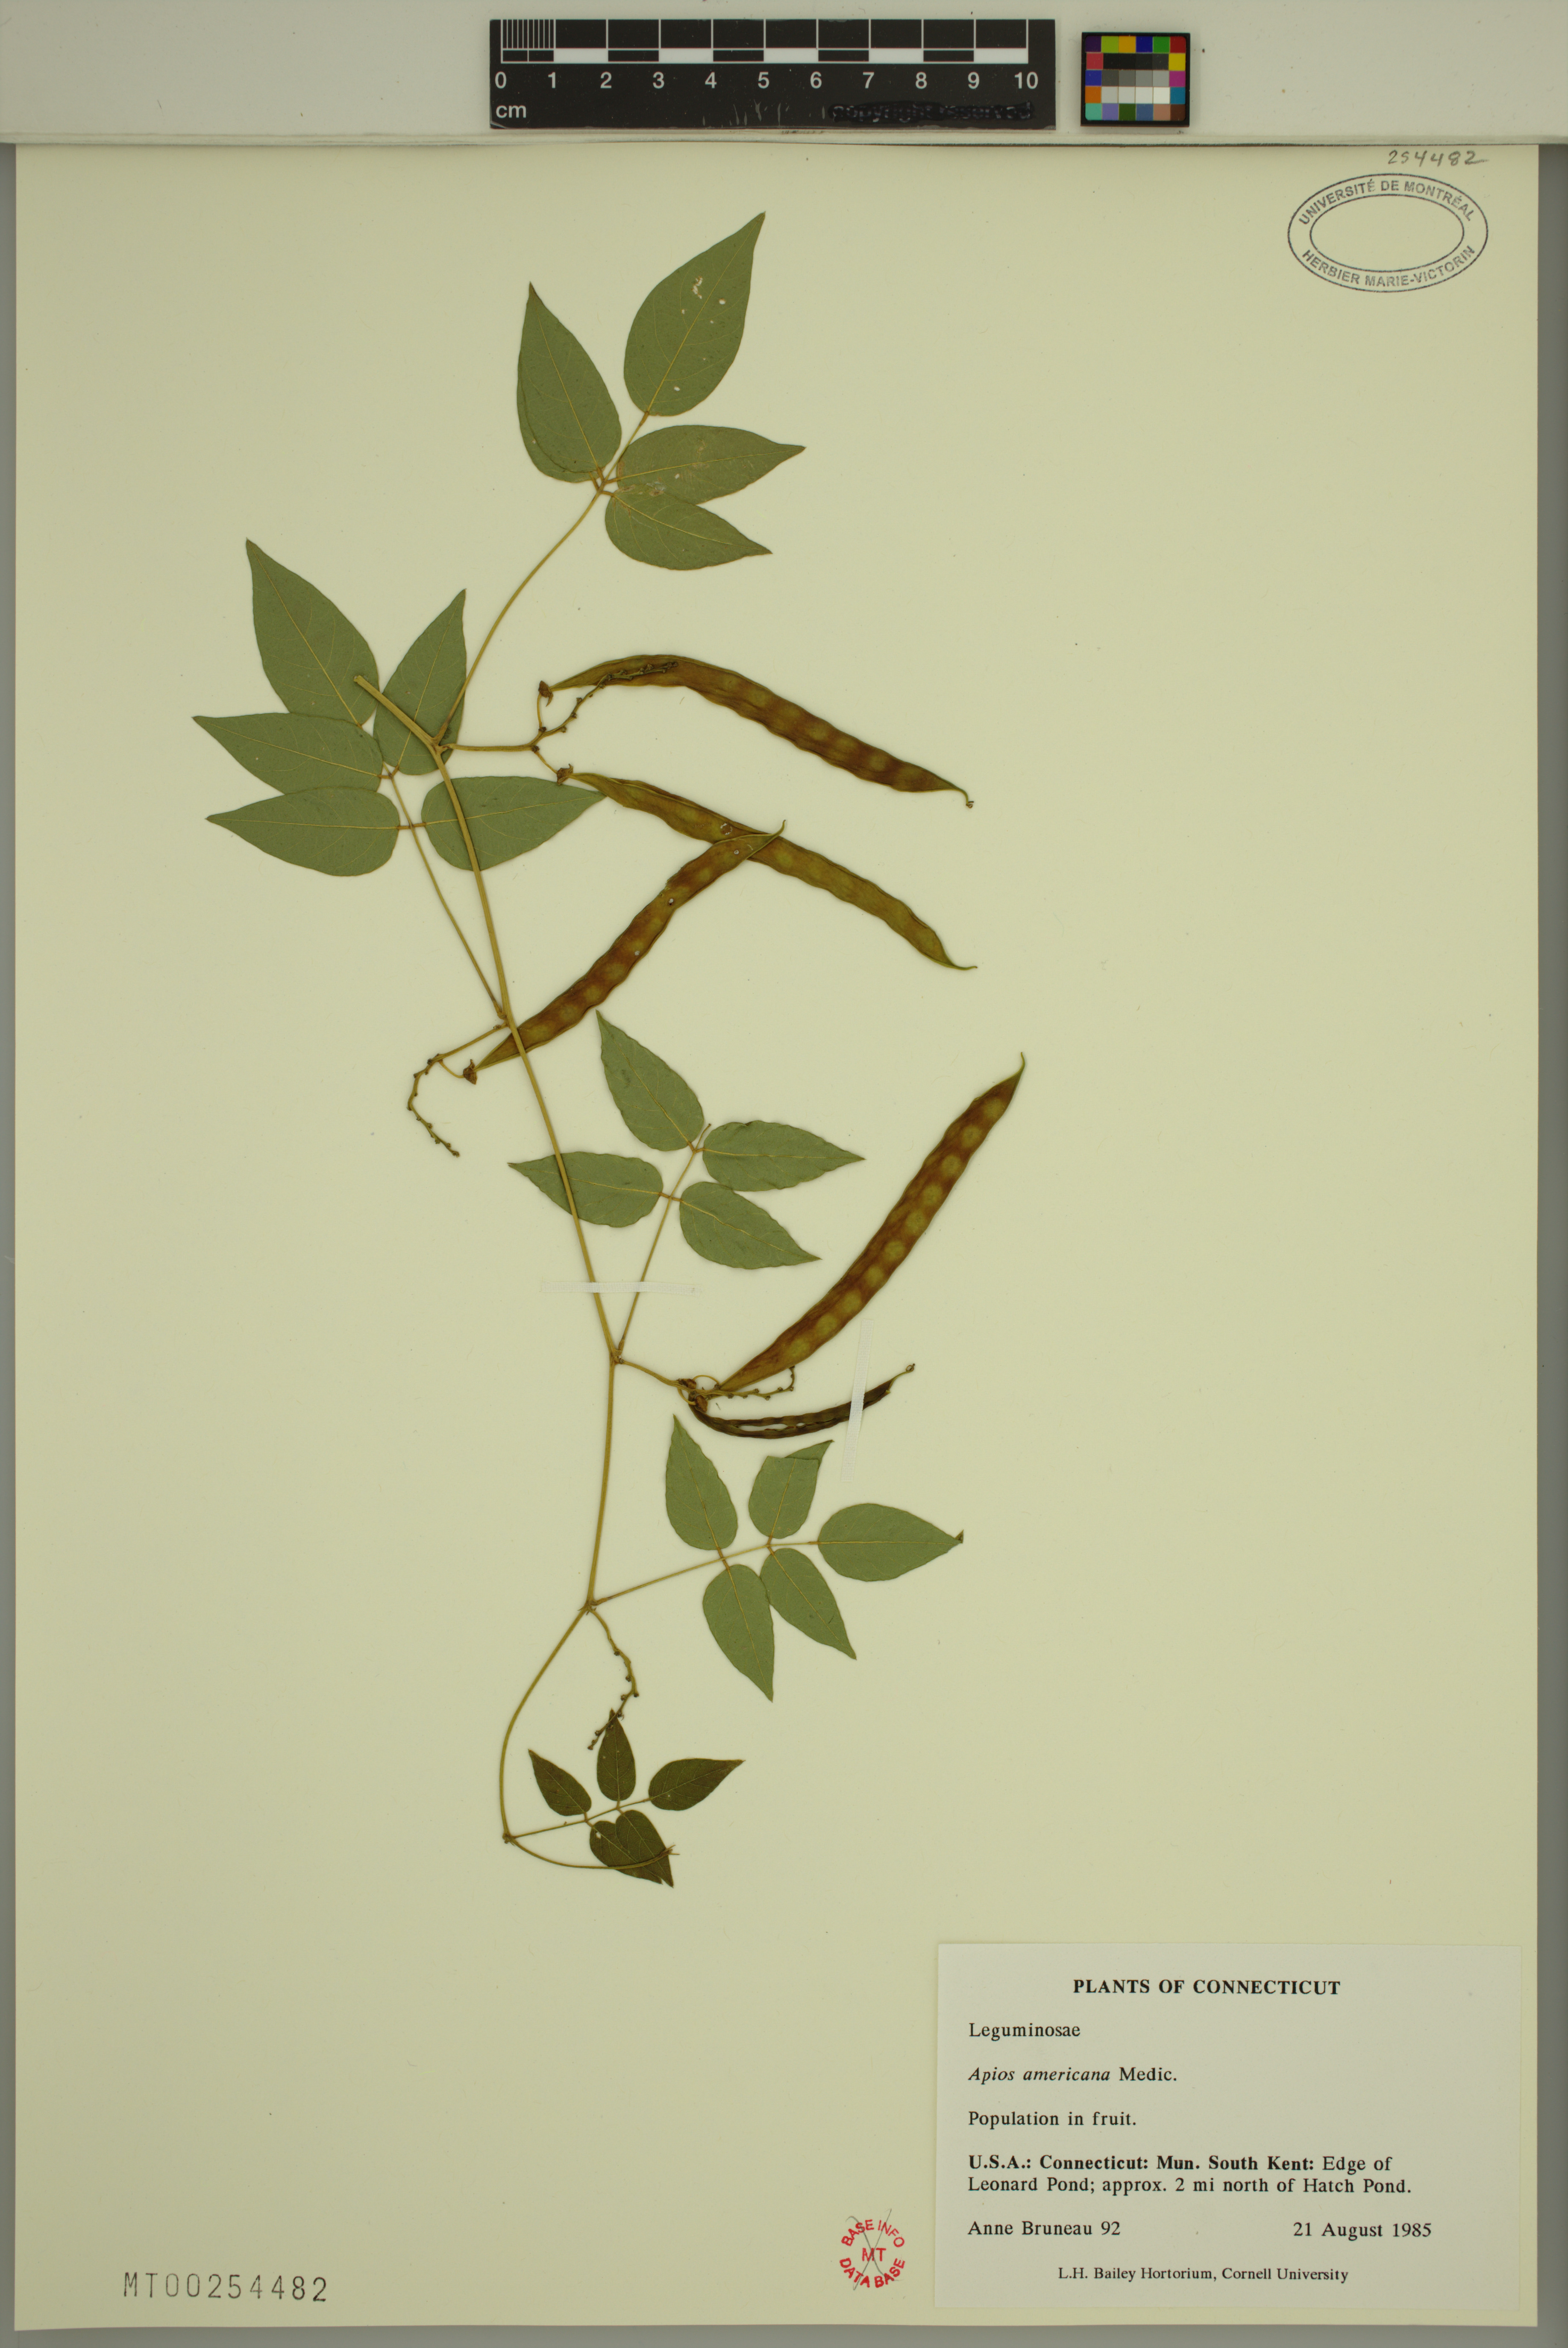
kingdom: Plantae
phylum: Tracheophyta
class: Magnoliopsida
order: Fabales
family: Fabaceae
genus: Apios
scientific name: Apios americana
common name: American potato-bean
